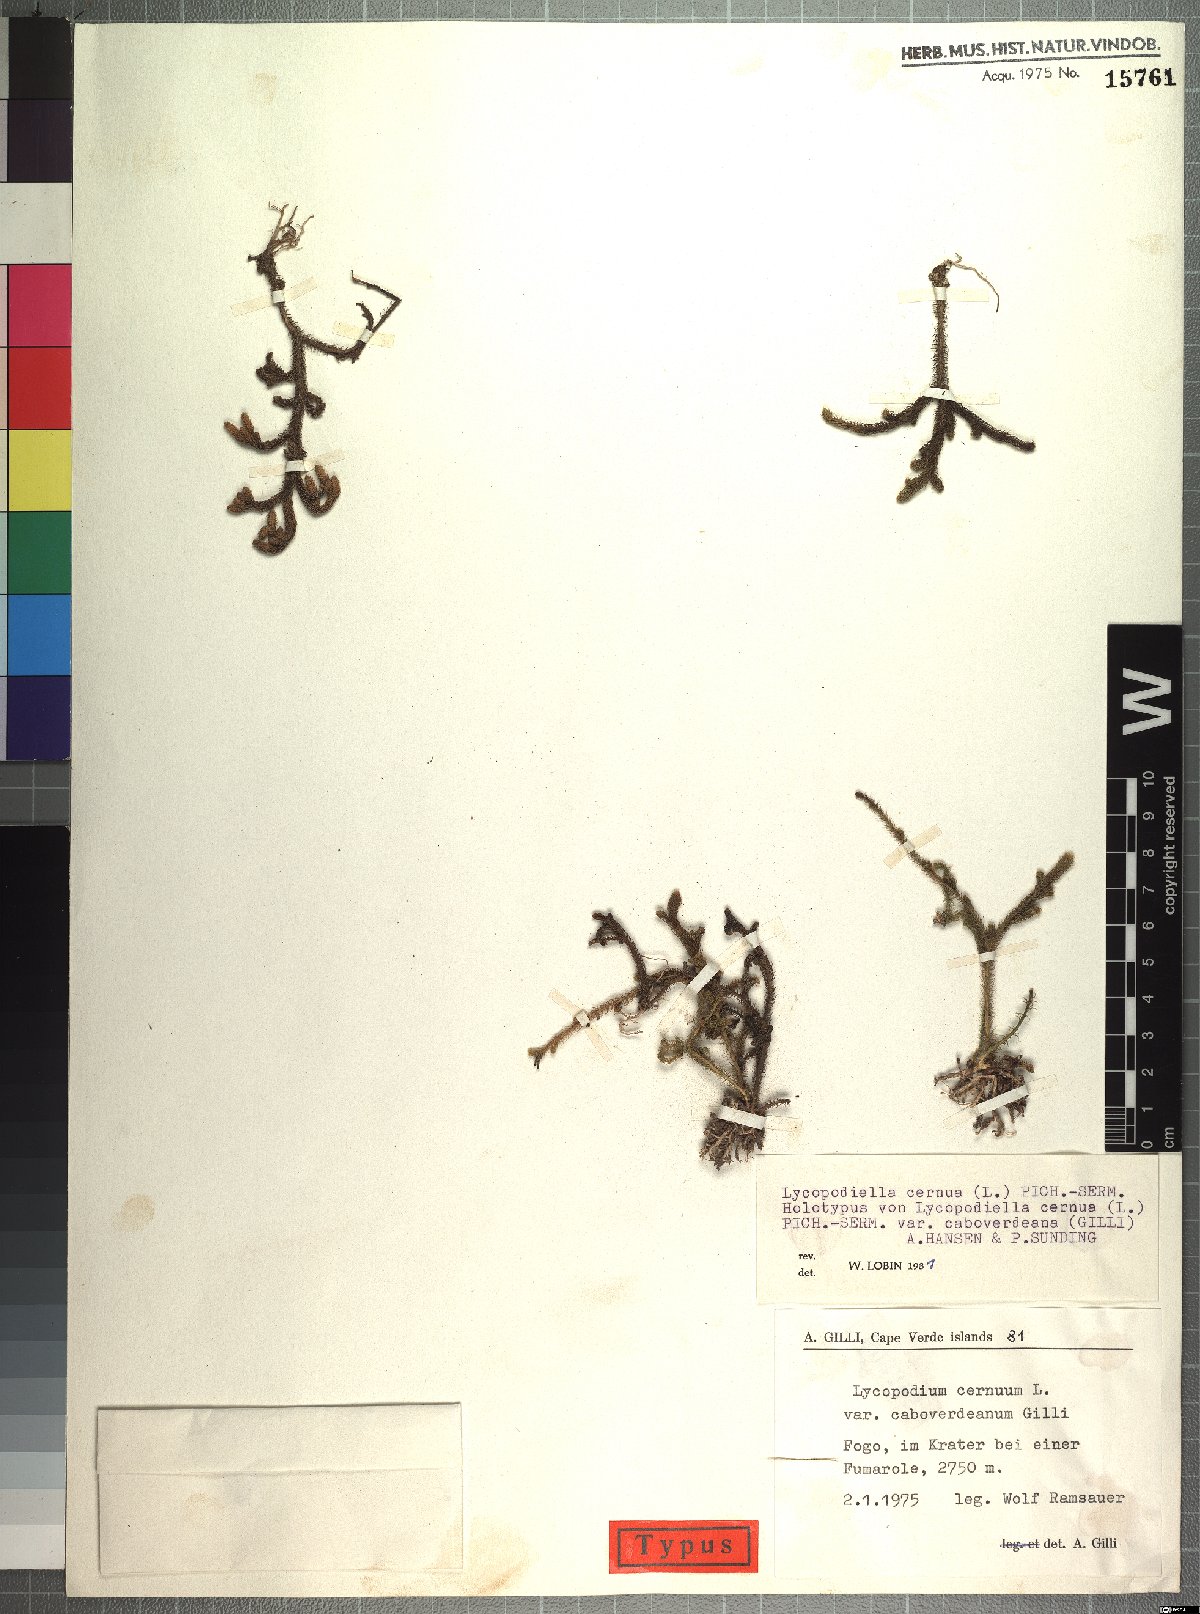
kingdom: Plantae
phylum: Tracheophyta
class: Lycopodiopsida
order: Lycopodiales
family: Lycopodiaceae
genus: Palhinhaea
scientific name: Palhinhaea cernua
